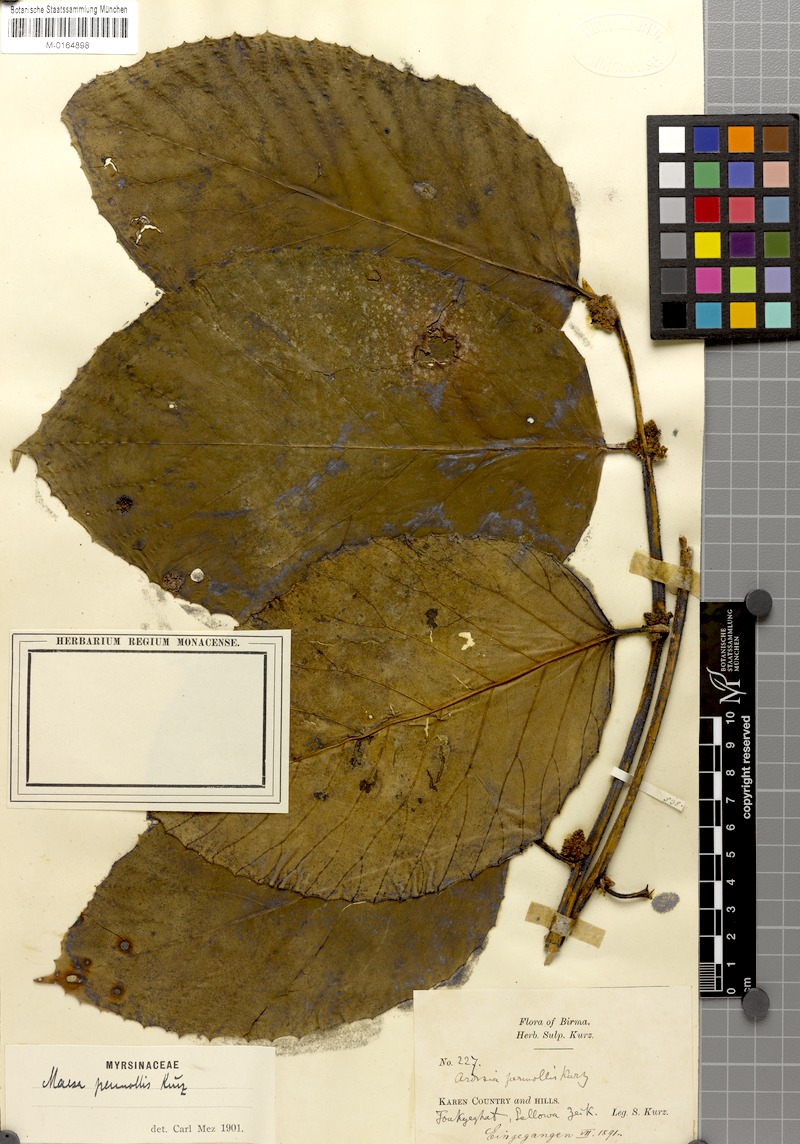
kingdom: Plantae
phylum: Tracheophyta
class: Magnoliopsida
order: Ericales
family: Primulaceae
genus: Maesa
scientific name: Maesa permollis
